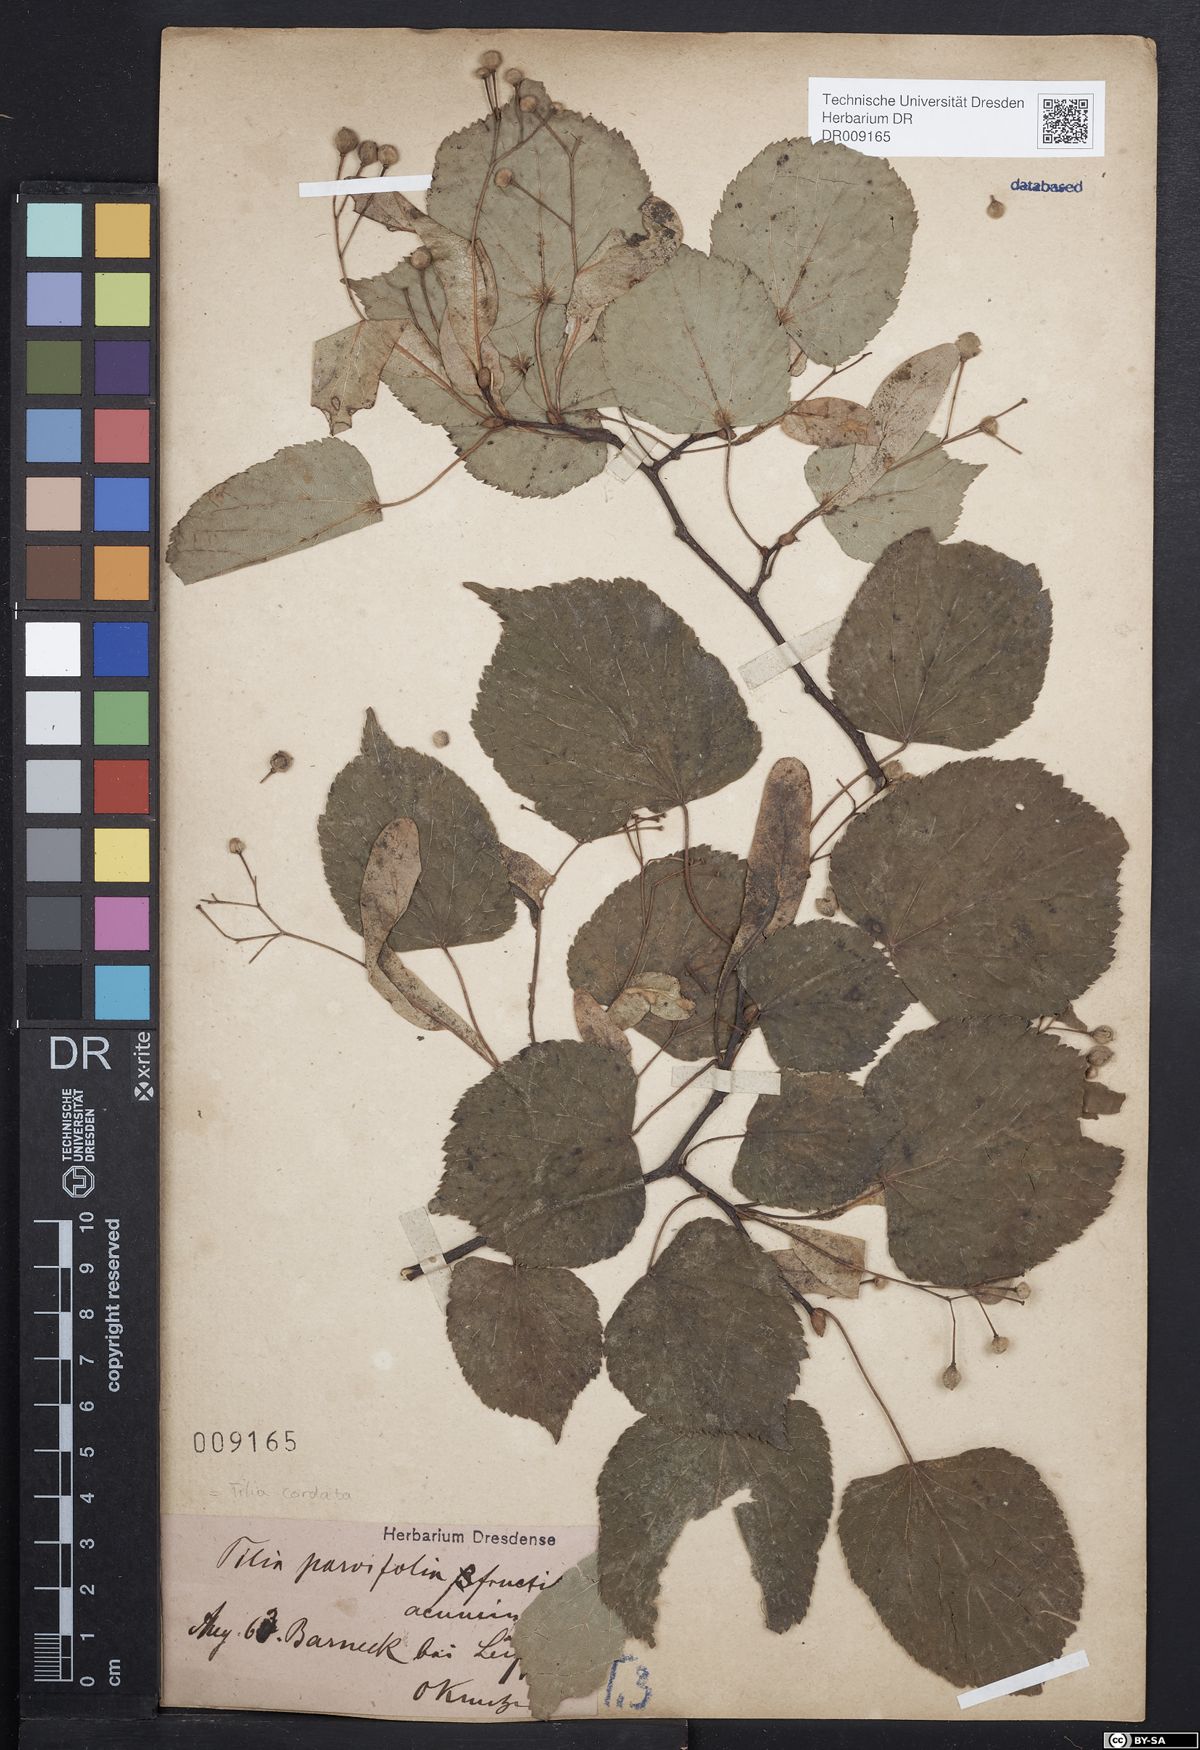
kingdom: Plantae
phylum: Tracheophyta
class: Magnoliopsida
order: Malvales
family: Malvaceae
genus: Tilia
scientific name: Tilia cordata
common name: Small-leaved lime
